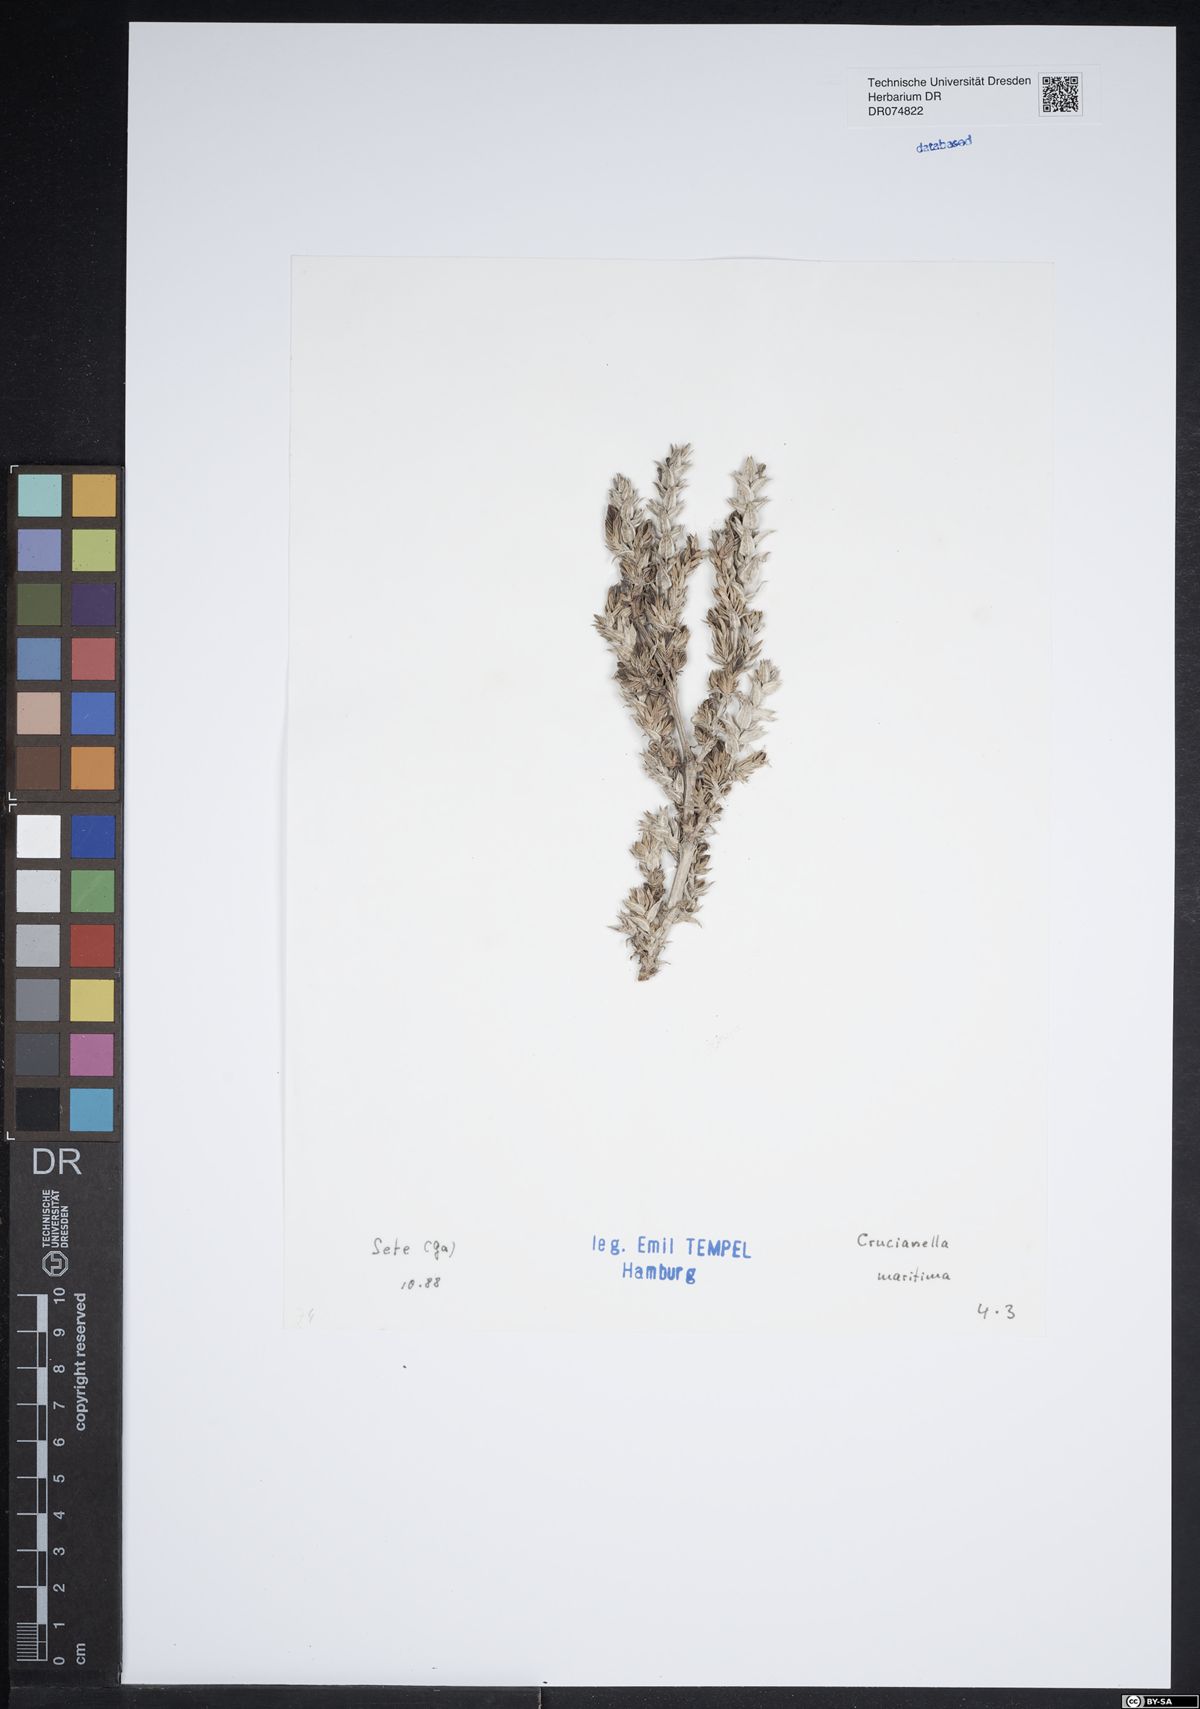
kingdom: Plantae
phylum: Tracheophyta
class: Magnoliopsida
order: Gentianales
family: Rubiaceae
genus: Crucianella
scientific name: Crucianella maritima
